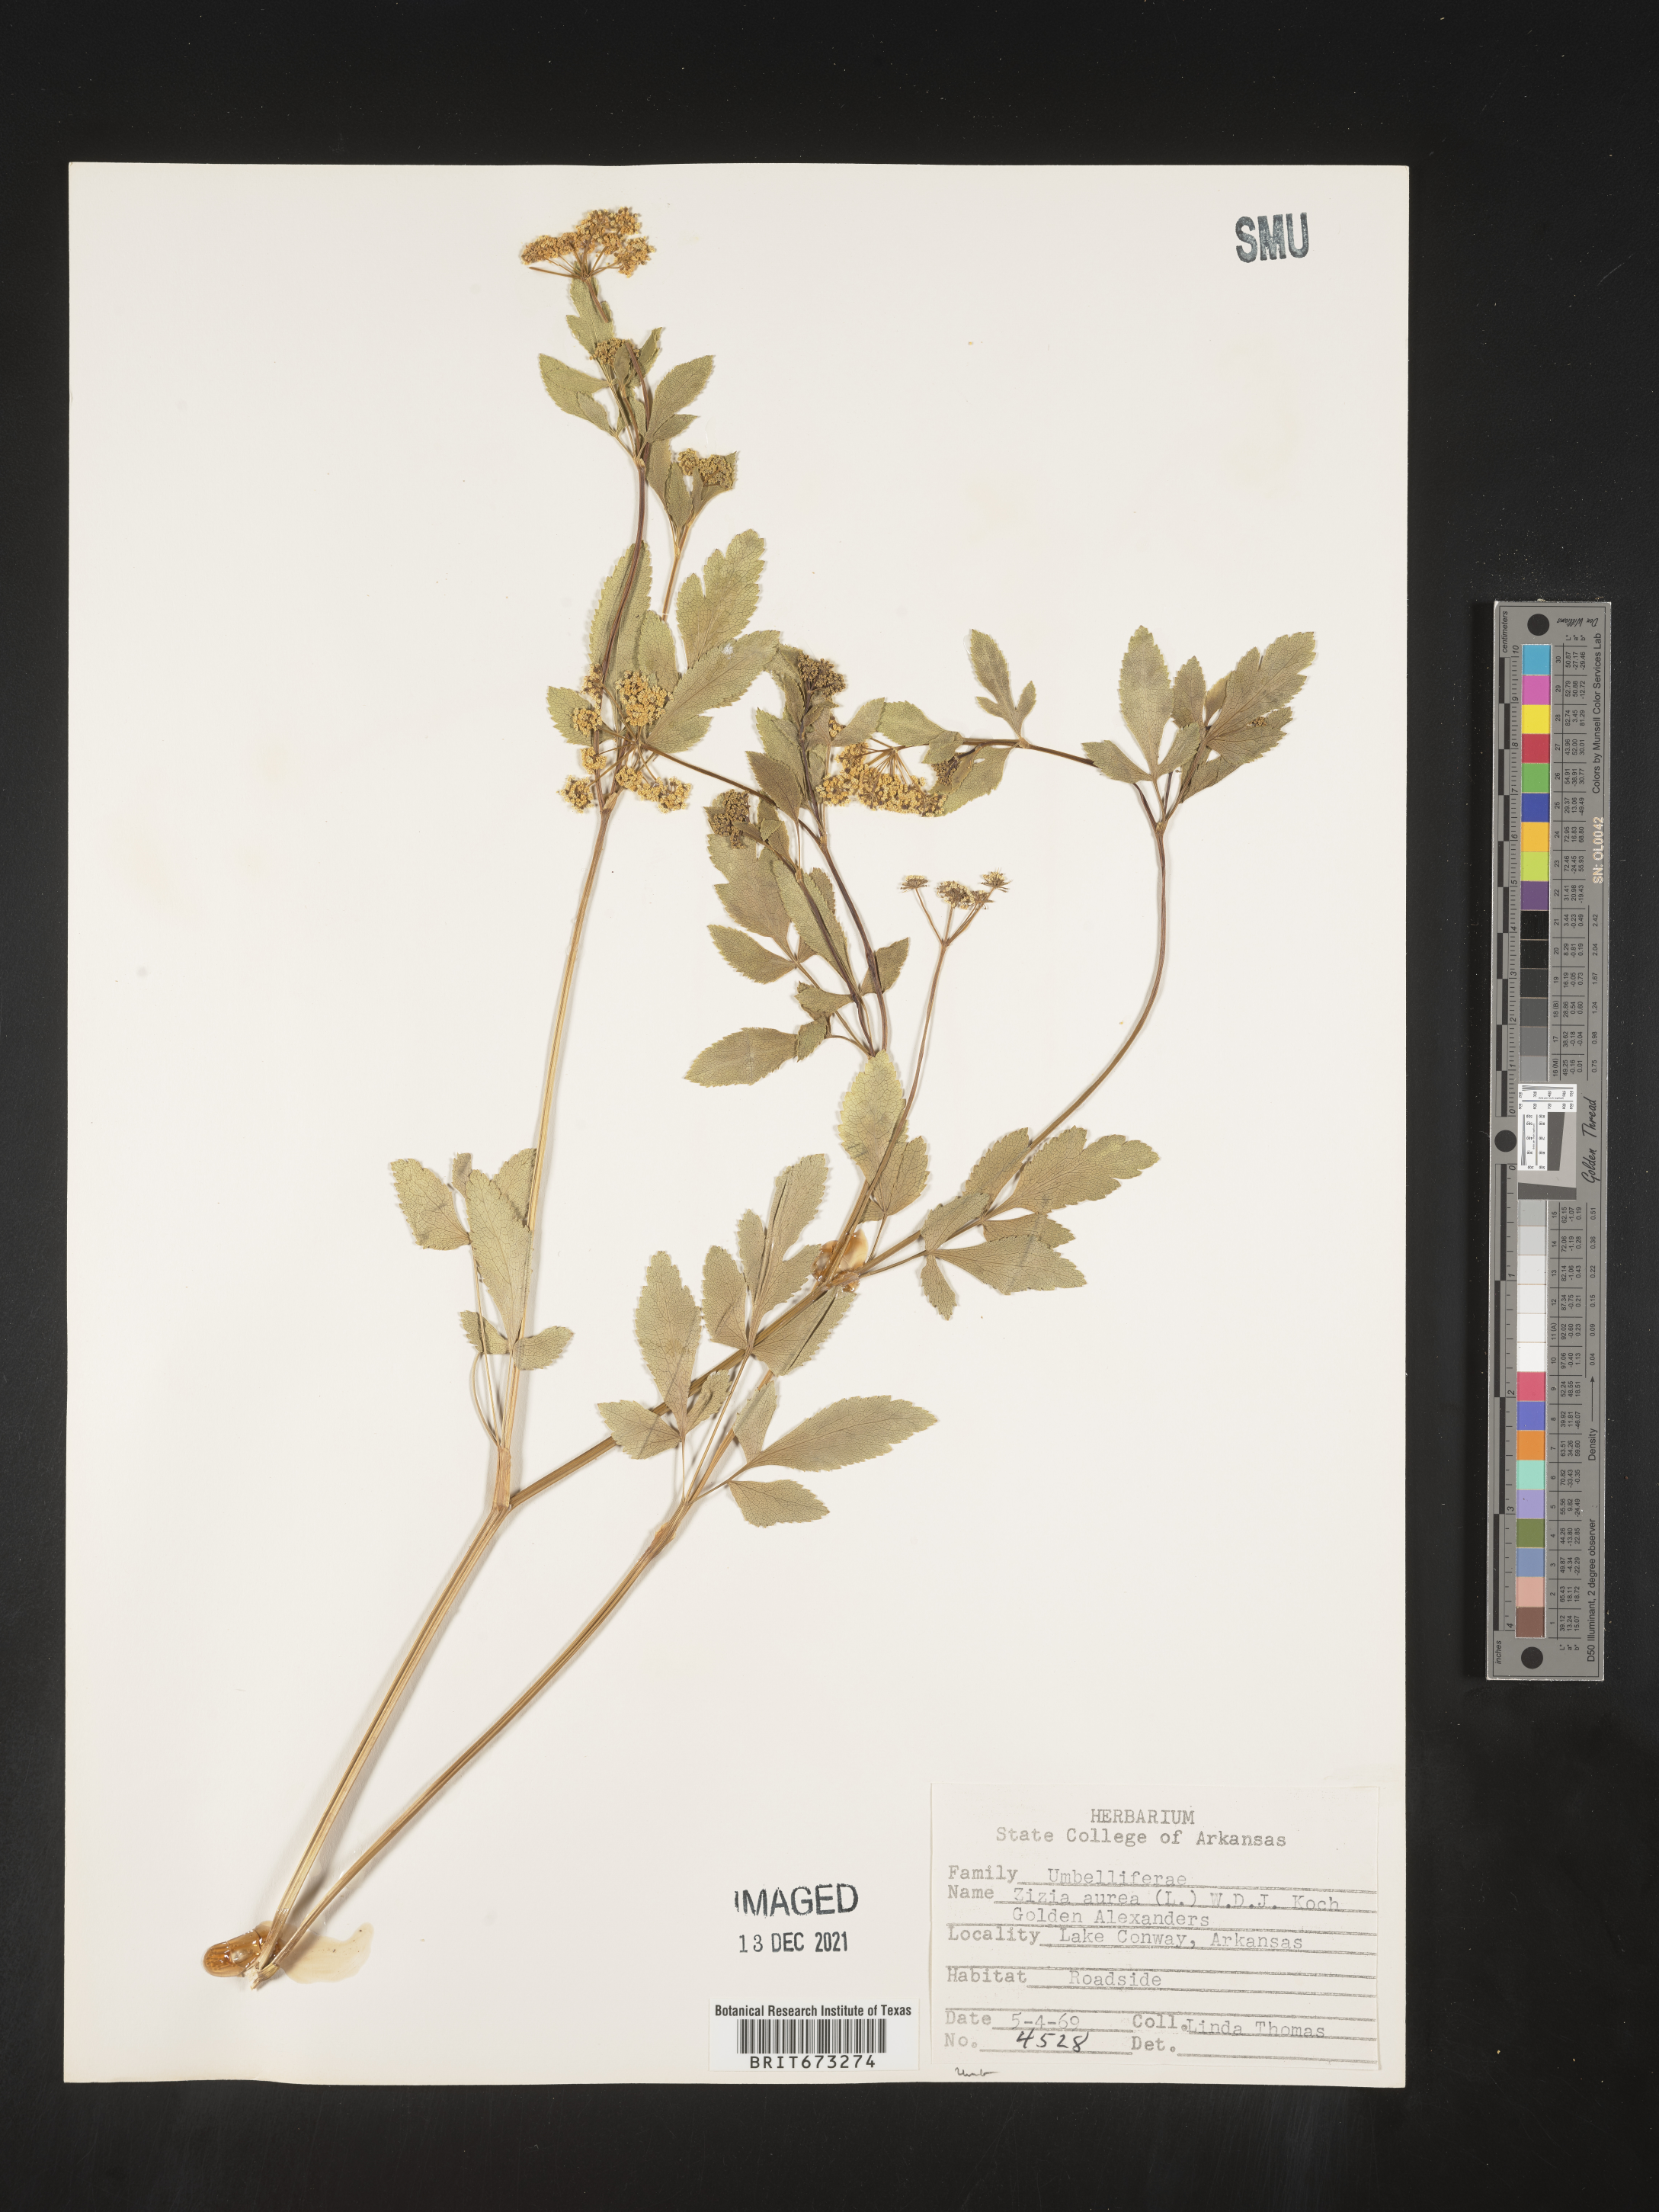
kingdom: Plantae
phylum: Tracheophyta
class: Magnoliopsida
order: Apiales
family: Apiaceae
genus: Zizia
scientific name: Zizia aurea
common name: Golden alexanders
